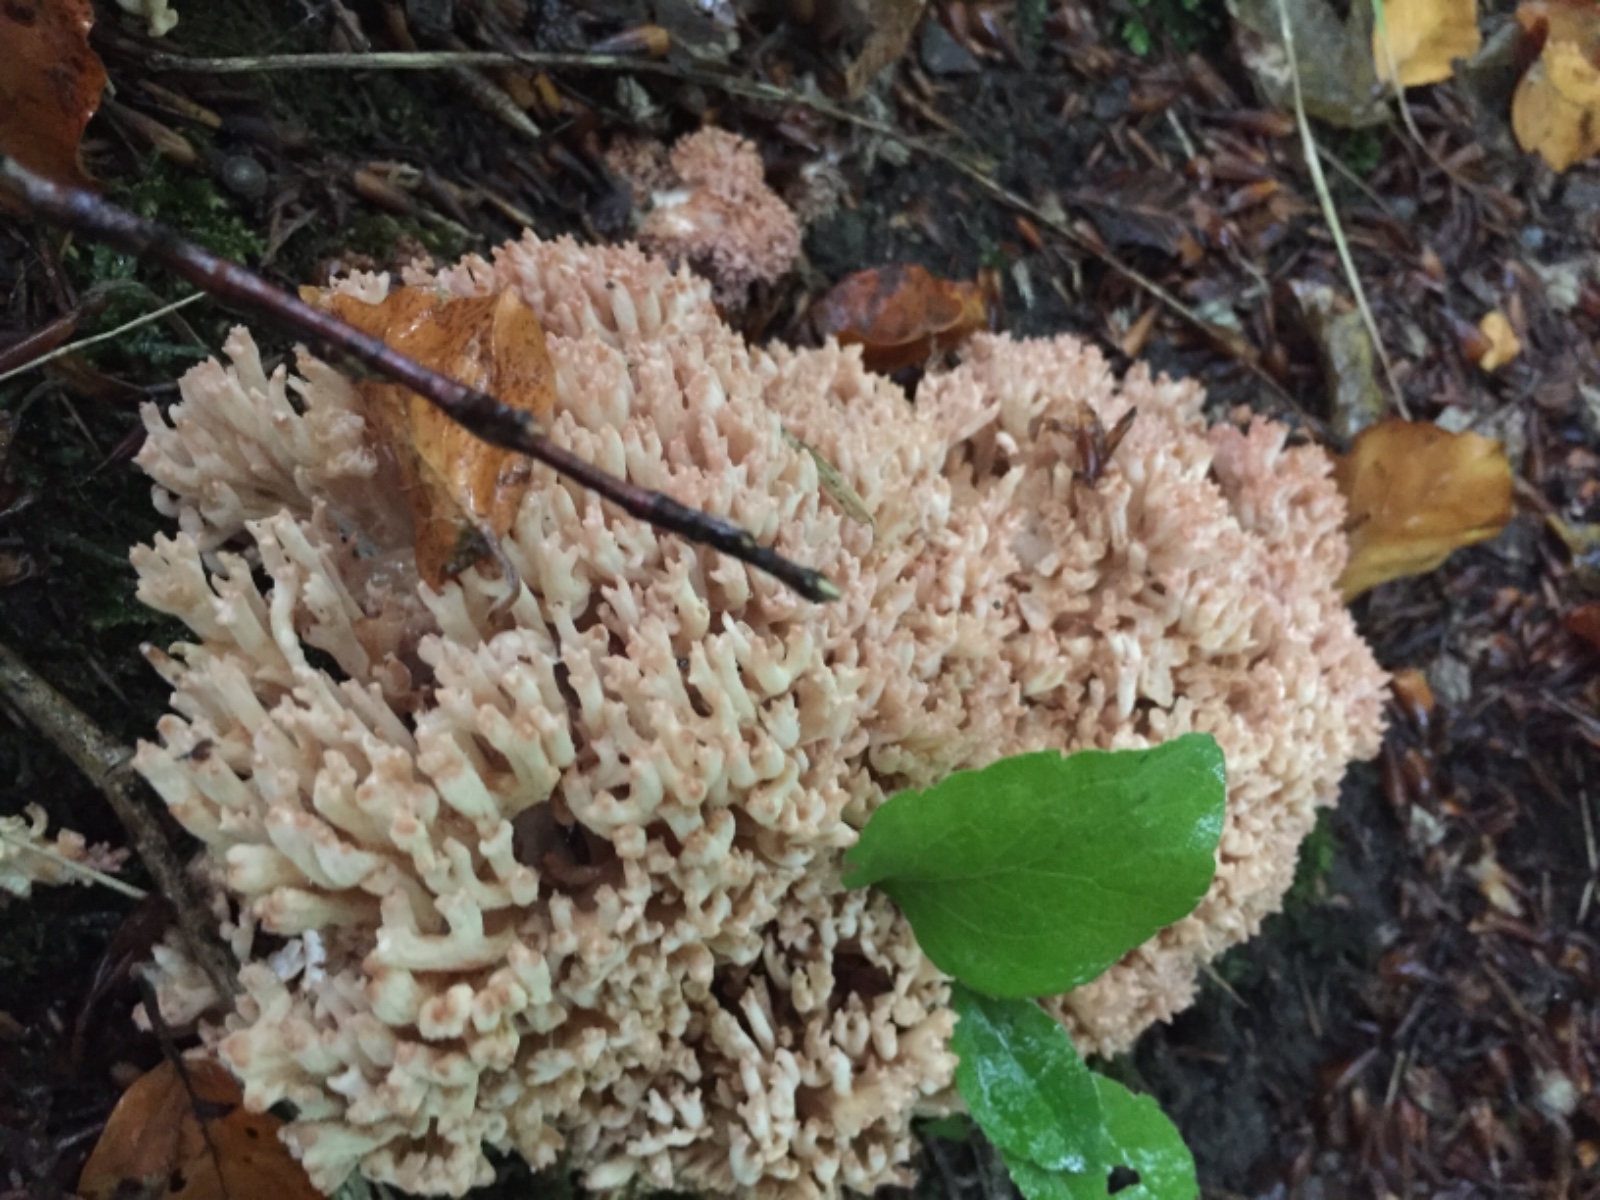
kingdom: Fungi
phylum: Basidiomycota
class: Agaricomycetes
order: Gomphales
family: Gomphaceae
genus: Ramaria
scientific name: Ramaria botrytis
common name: drue-koralsvamp
